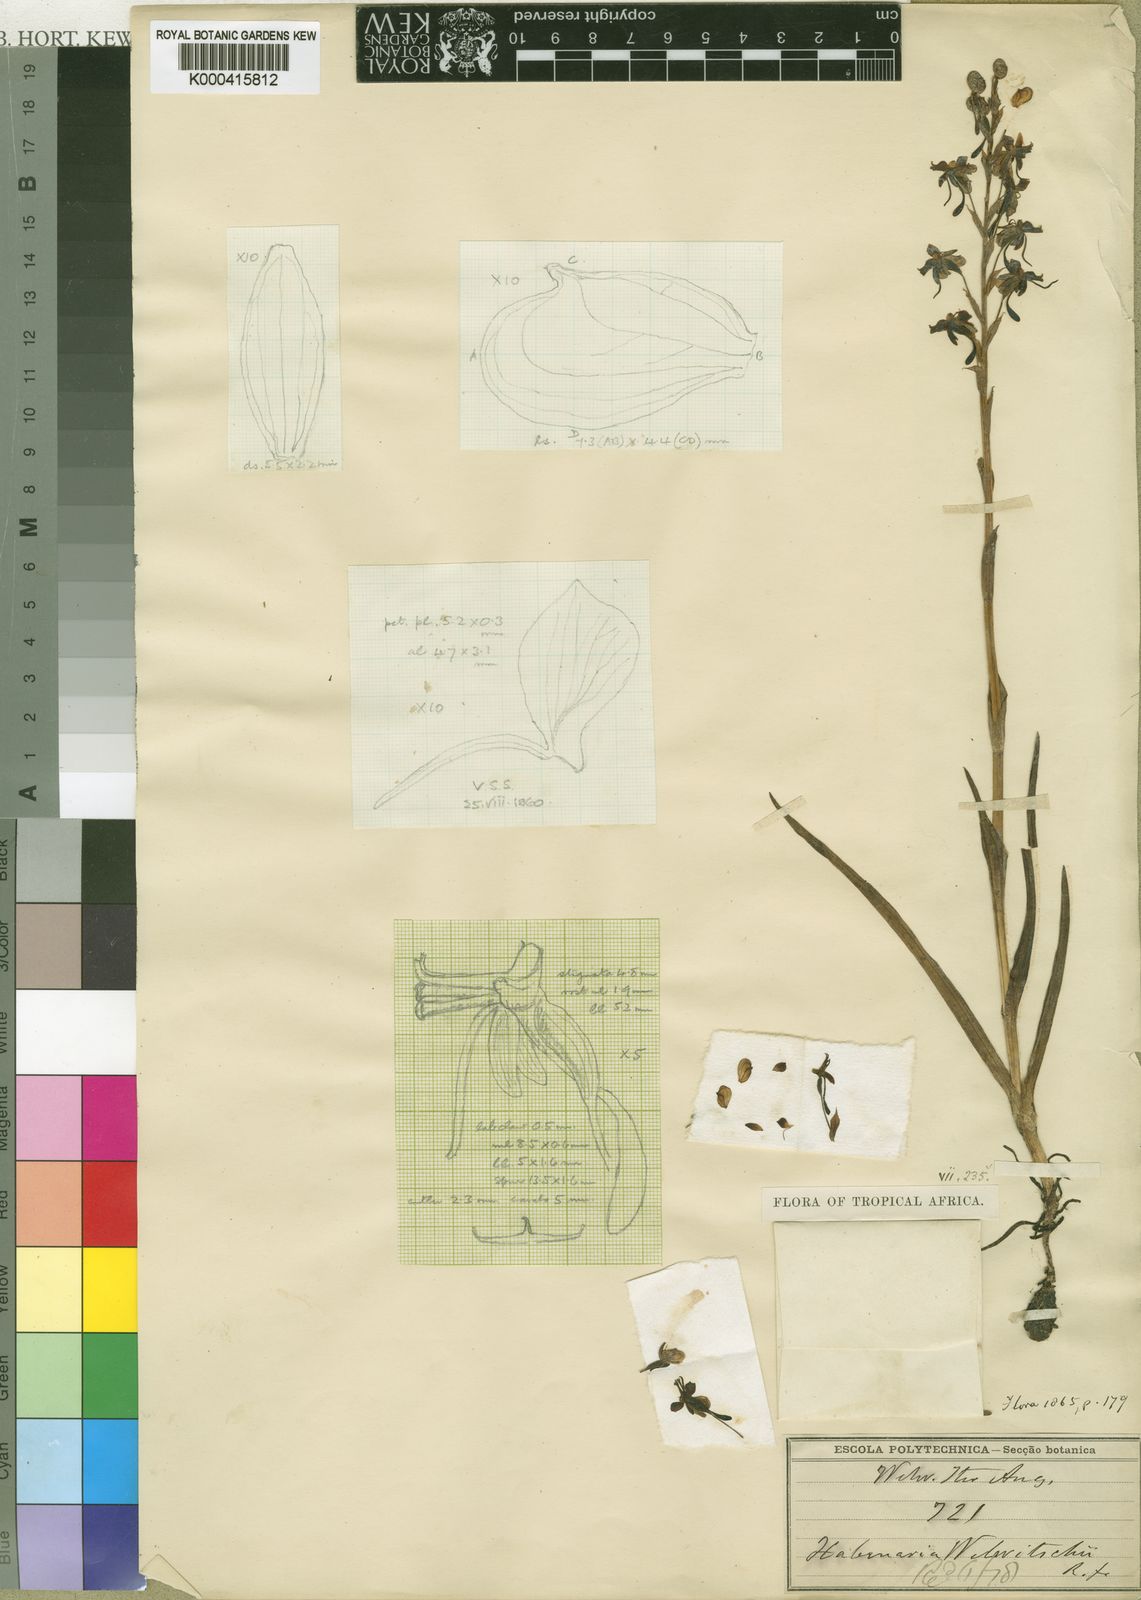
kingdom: Plantae
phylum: Tracheophyta
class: Liliopsida
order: Asparagales
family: Orchidaceae
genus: Habenaria
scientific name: Habenaria welwitschii
